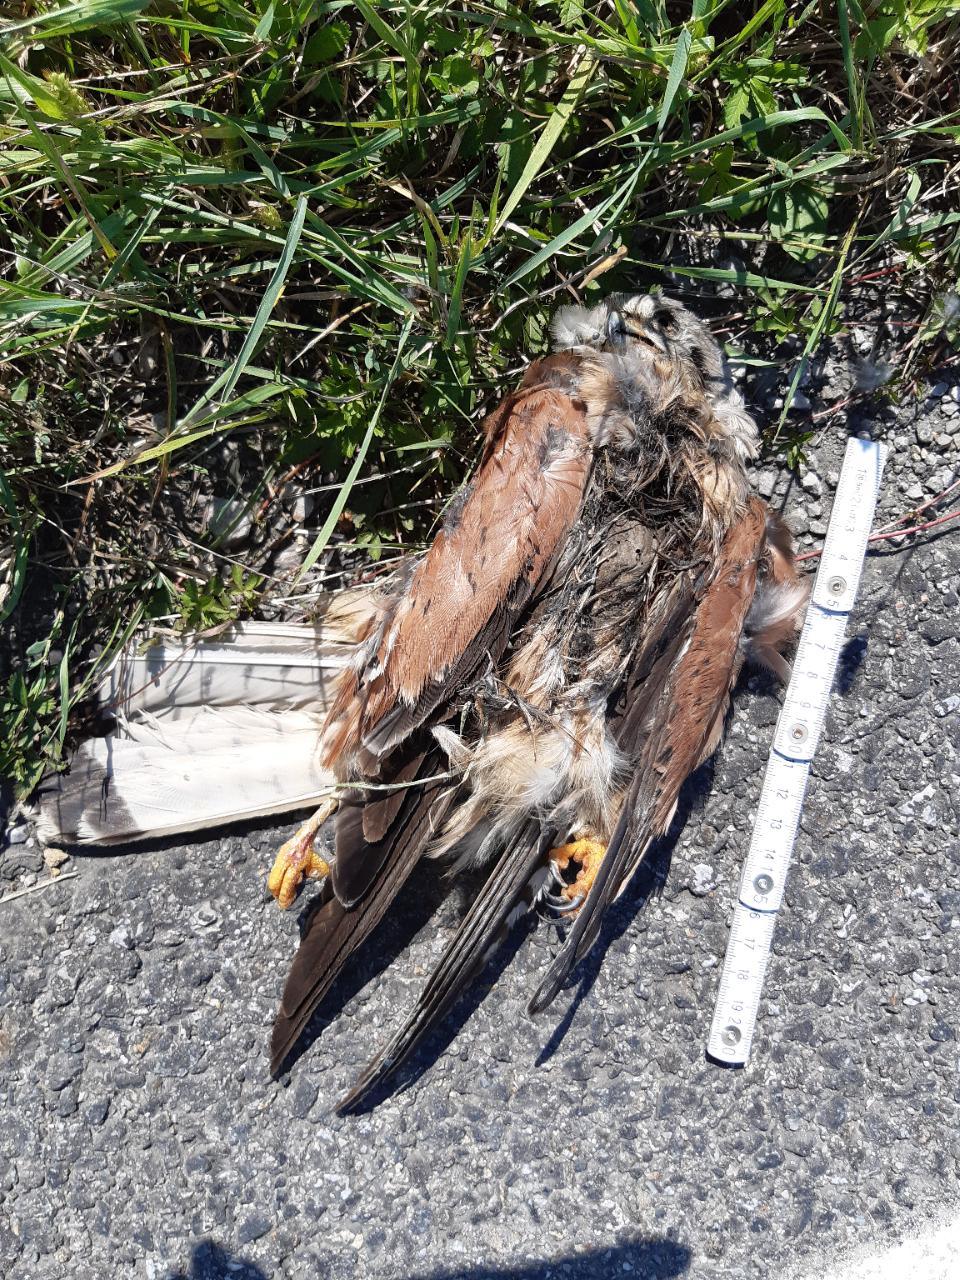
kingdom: Animalia
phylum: Chordata
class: Aves
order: Falconiformes
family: Falconidae
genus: Falco
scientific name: Falco tinnunculus
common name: Common kestrel
